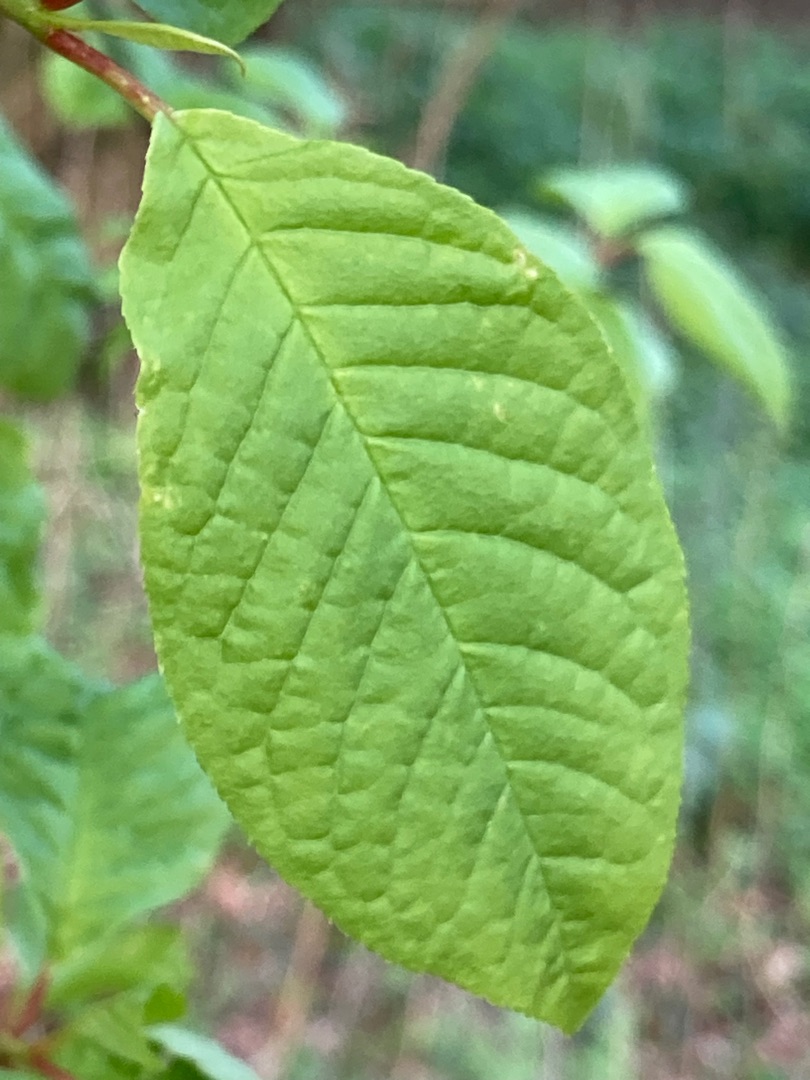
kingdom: Plantae
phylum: Tracheophyta
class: Magnoliopsida
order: Rosales
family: Rosaceae
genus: Prunus
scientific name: Prunus padus
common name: Almindelig hæg
